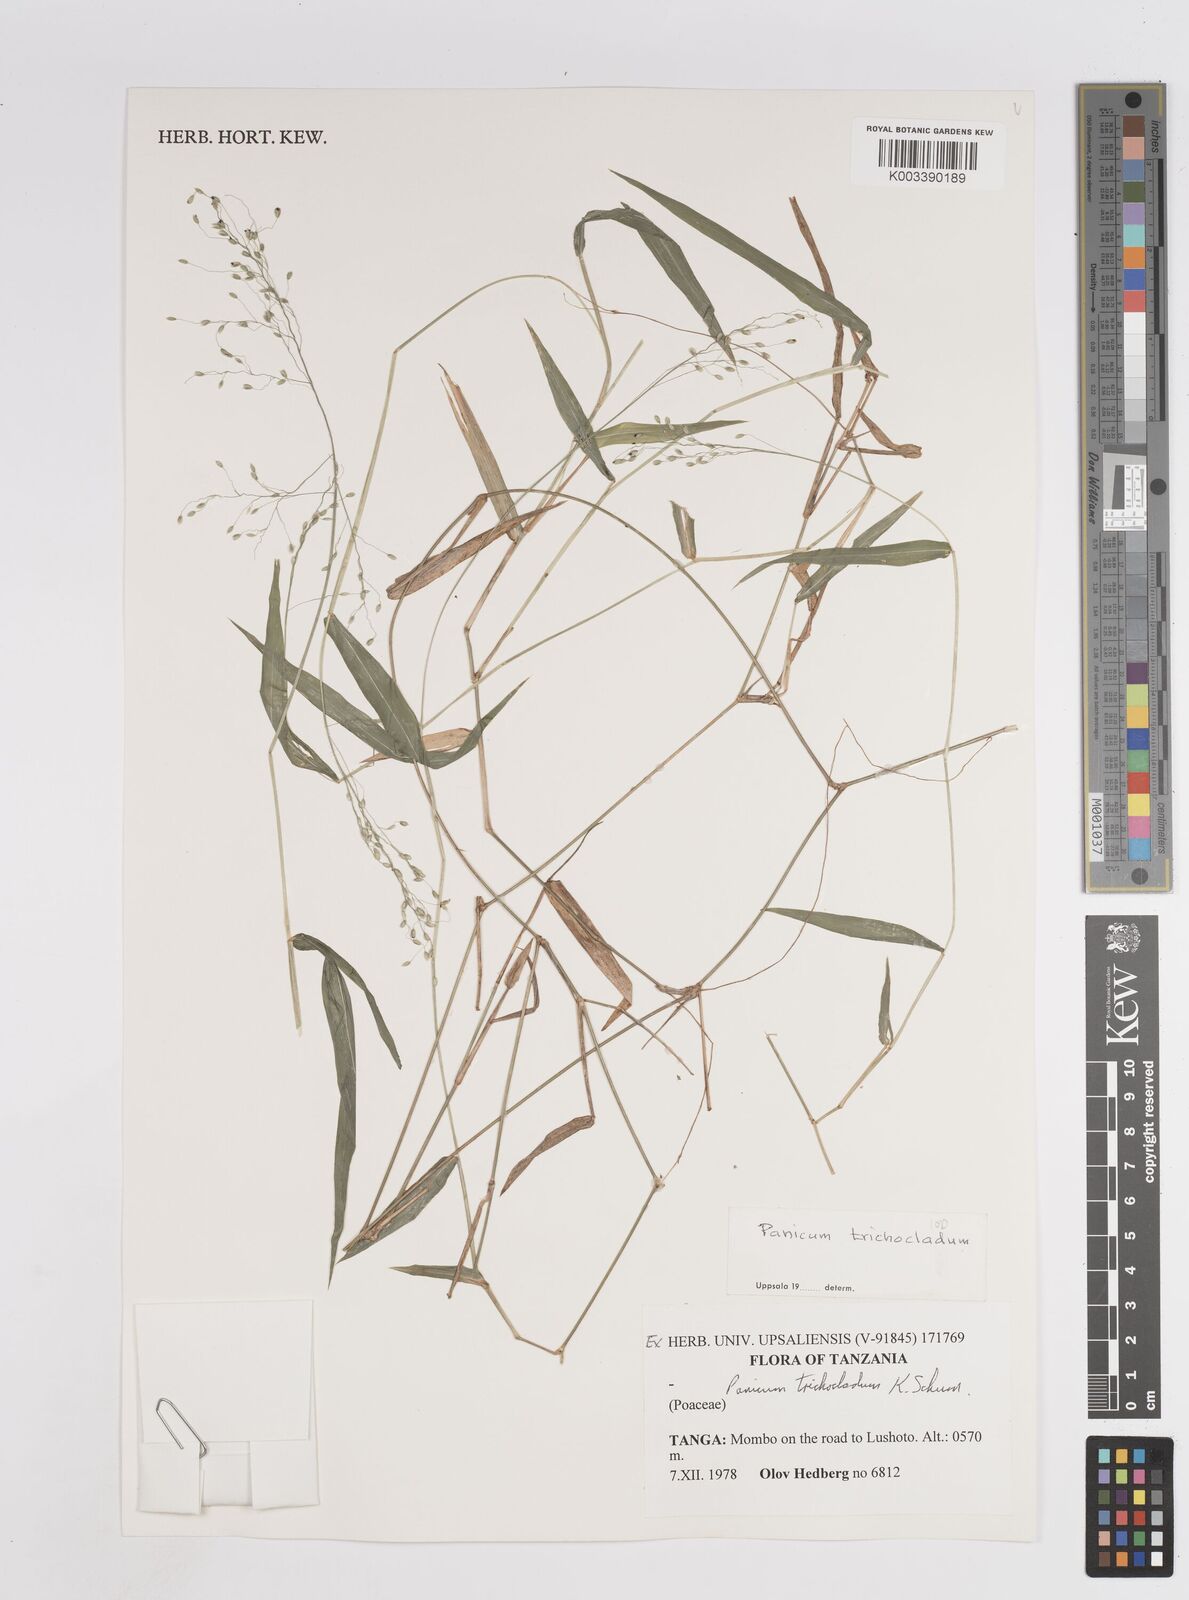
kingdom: Plantae
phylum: Tracheophyta
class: Liliopsida
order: Poales
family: Poaceae
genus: Panicum
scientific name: Panicum trichocladum
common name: Donkey grass
